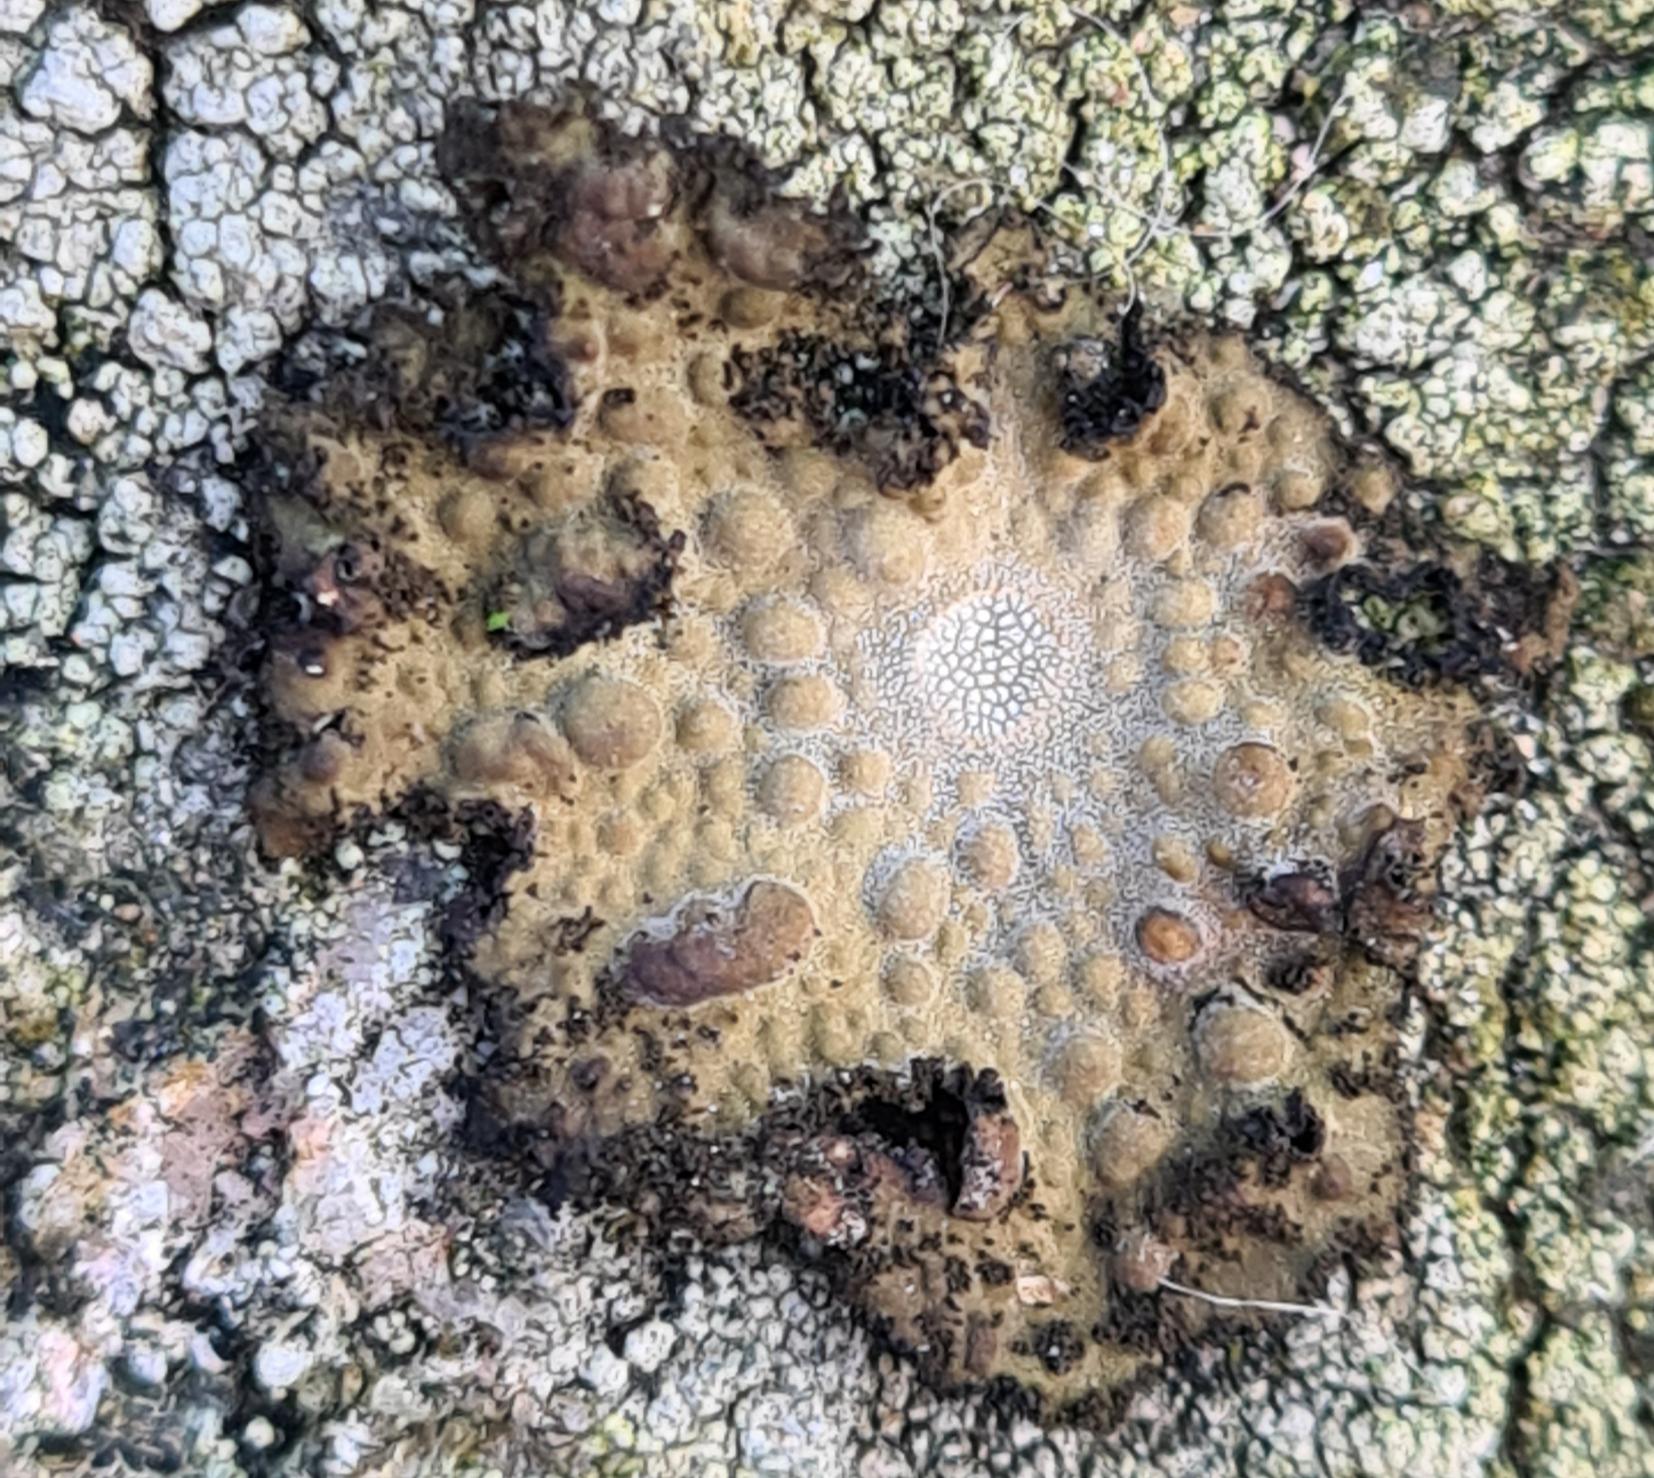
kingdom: Fungi
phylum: Ascomycota
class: Lecanoromycetes
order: Umbilicariales
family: Umbilicariaceae
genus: Lasallia
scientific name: Lasallia pustulata
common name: Buklet navlelav
